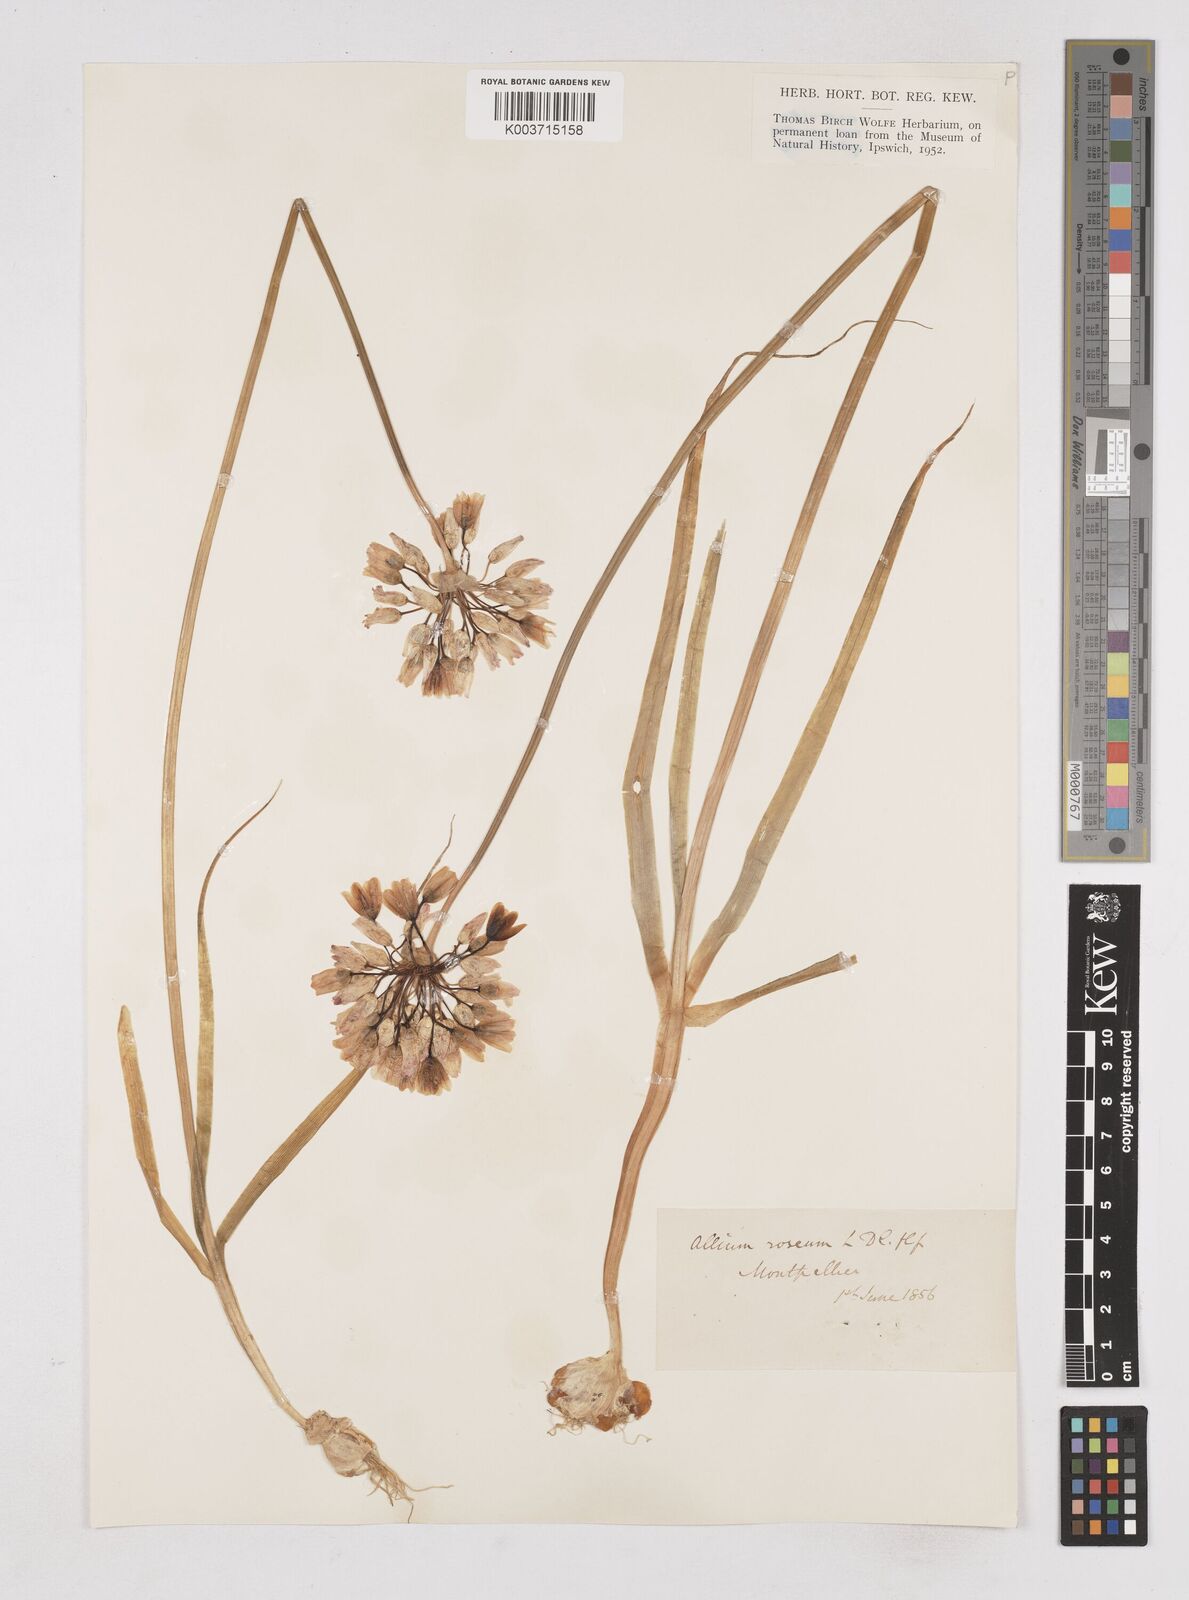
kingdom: Plantae
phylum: Tracheophyta
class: Liliopsida
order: Asparagales
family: Amaryllidaceae
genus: Allium
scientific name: Allium roseum
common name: Rosy garlic
